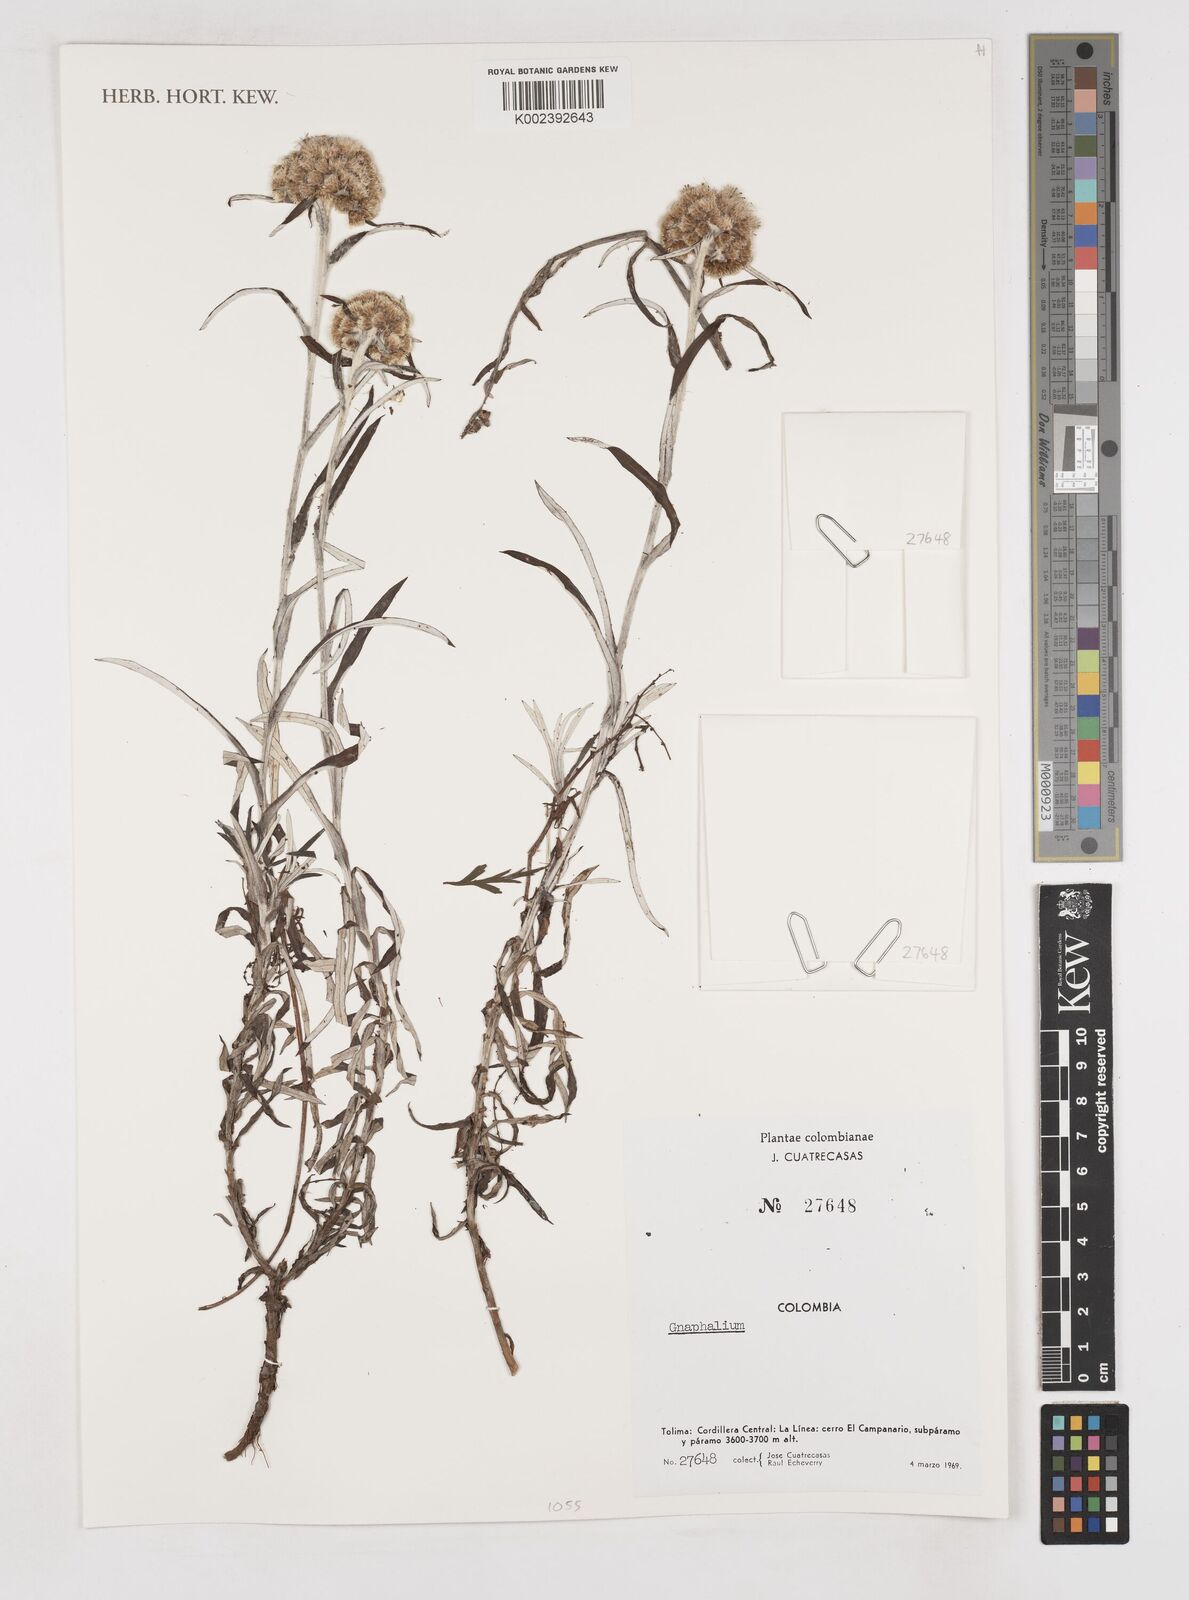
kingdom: Plantae
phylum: Tracheophyta
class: Magnoliopsida
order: Asterales
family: Asteraceae
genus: Gnaphalium
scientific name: Gnaphalium
